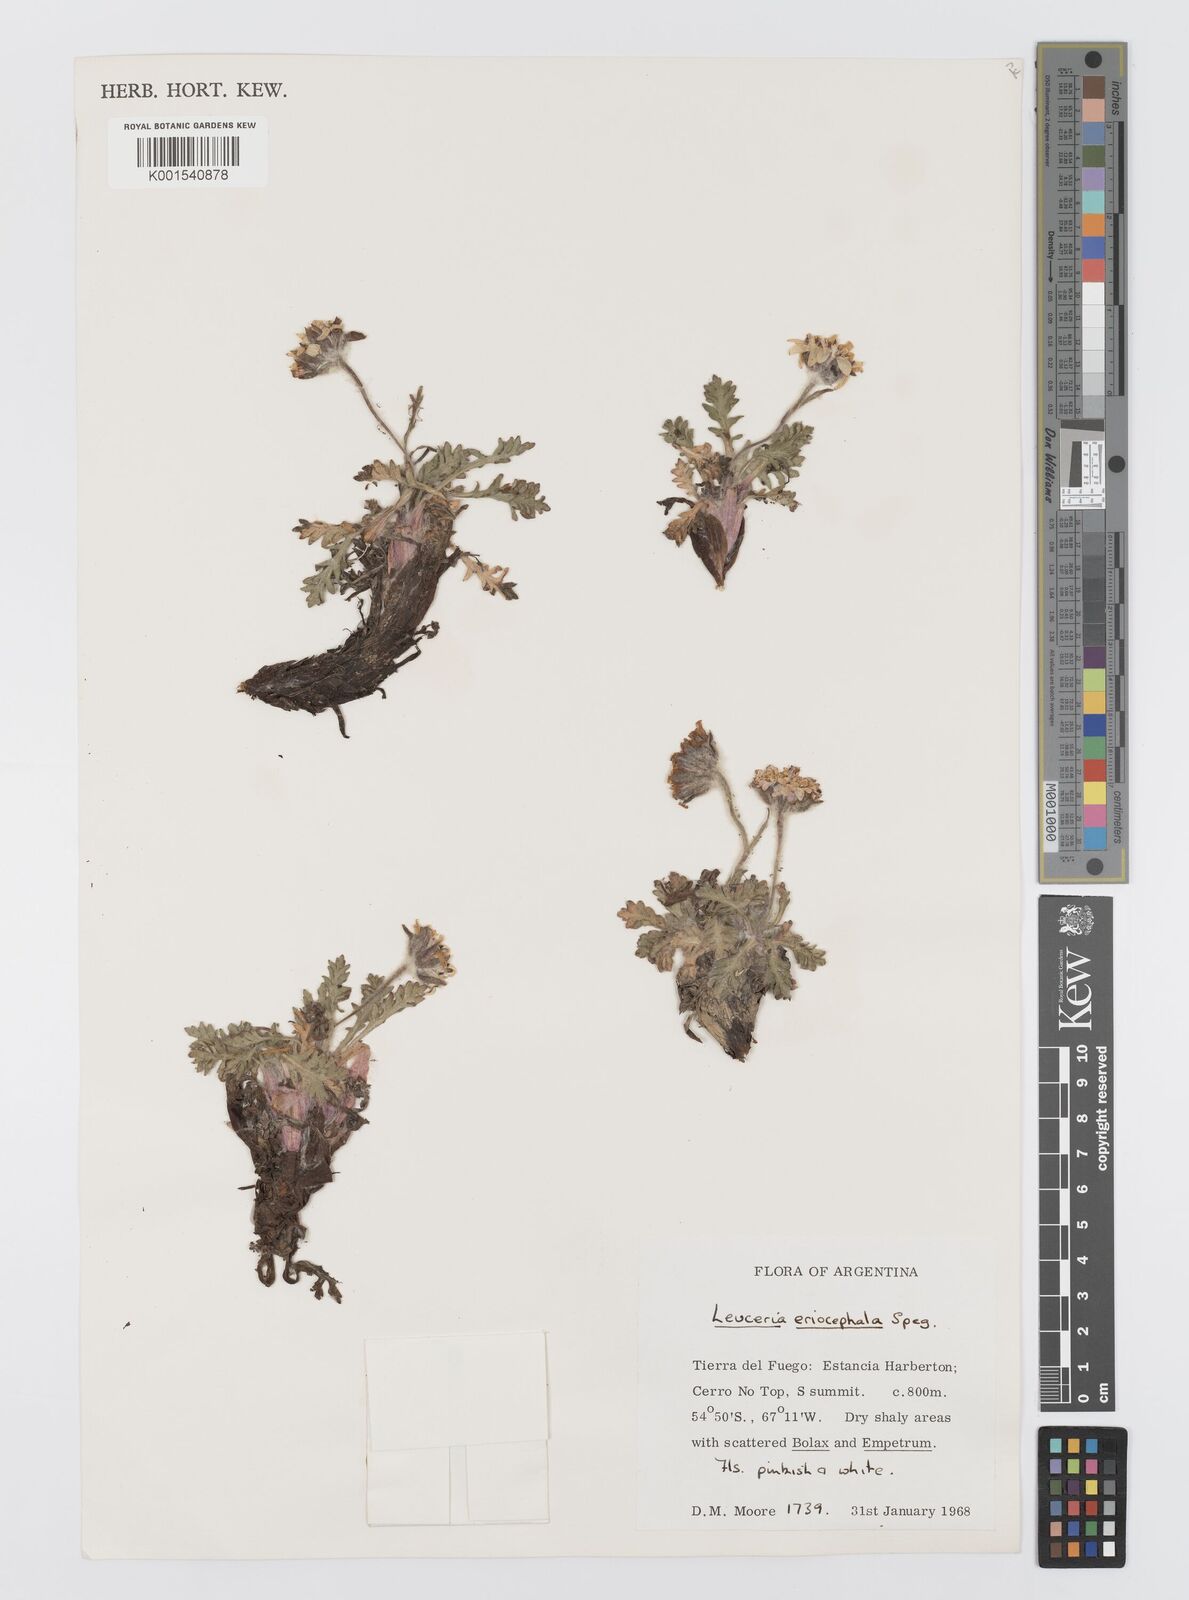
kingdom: Plantae
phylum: Tracheophyta
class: Magnoliopsida
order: Asterales
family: Asteraceae
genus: Leucheria
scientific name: Leucheria eriocephala
